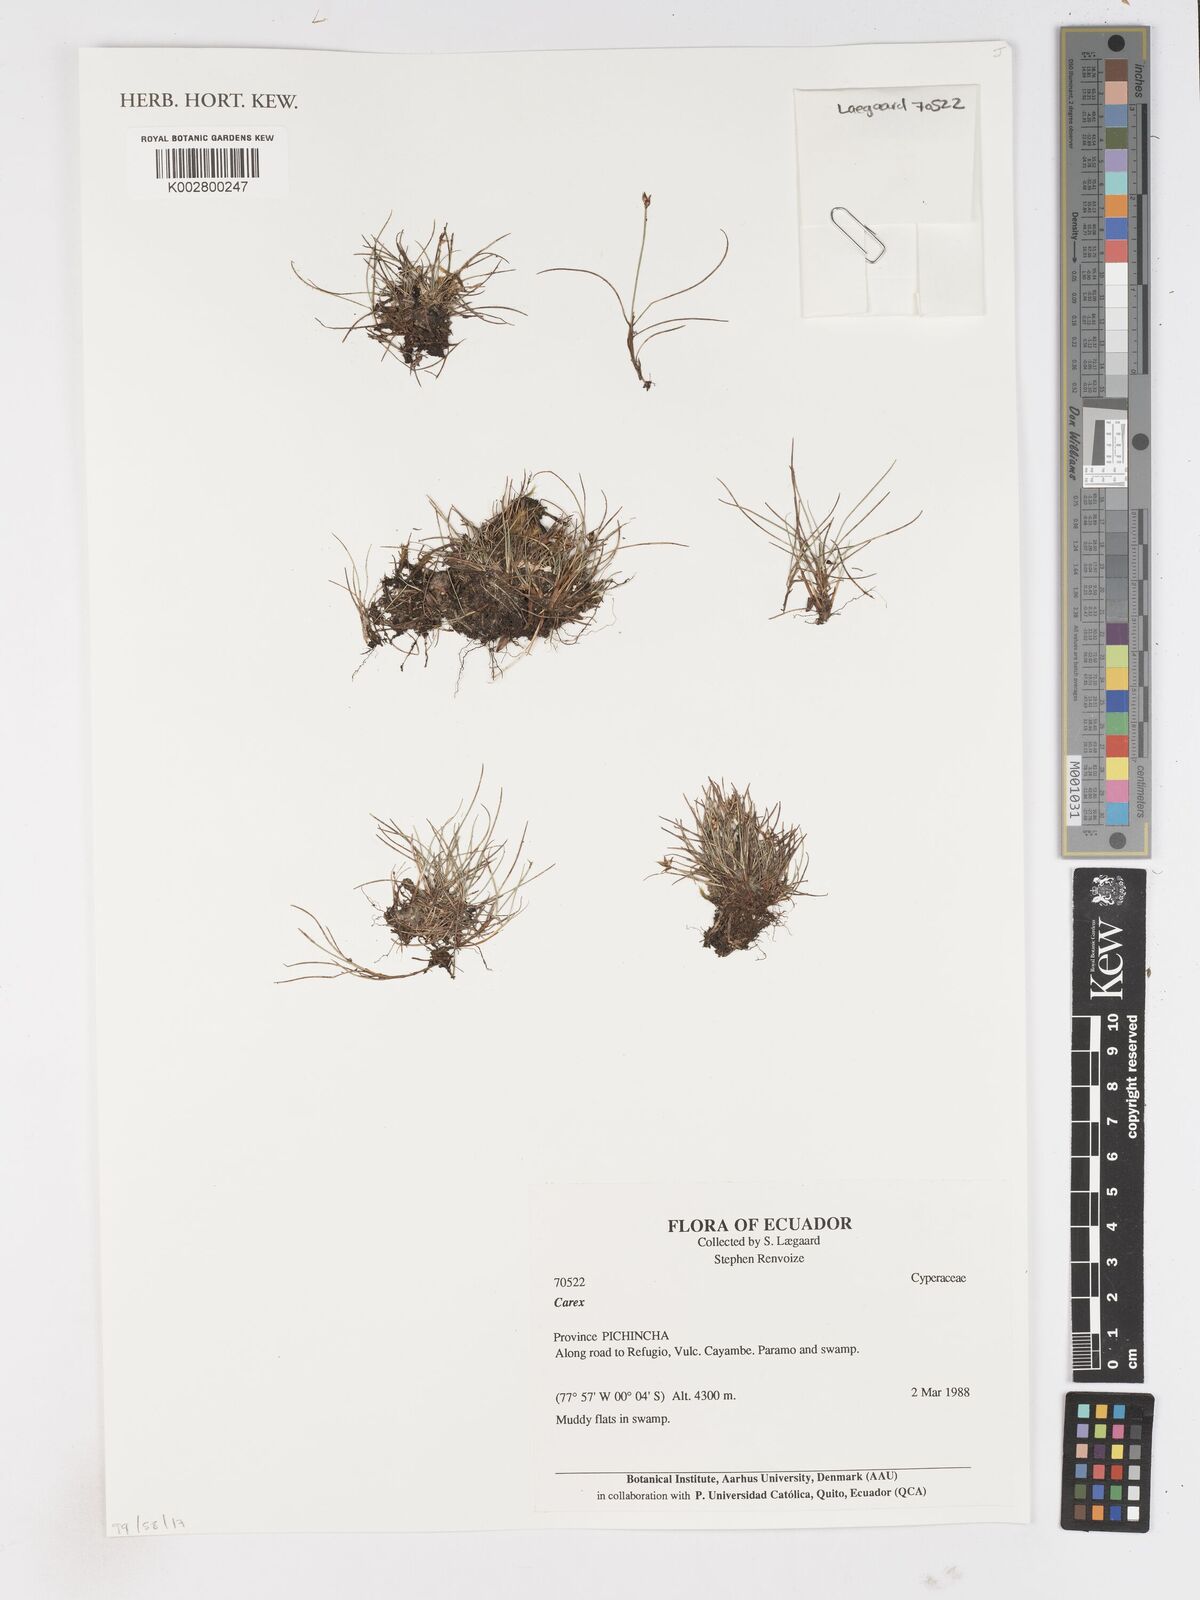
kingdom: Plantae
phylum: Tracheophyta
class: Liliopsida
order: Poales
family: Cyperaceae
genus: Carex
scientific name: Carex
